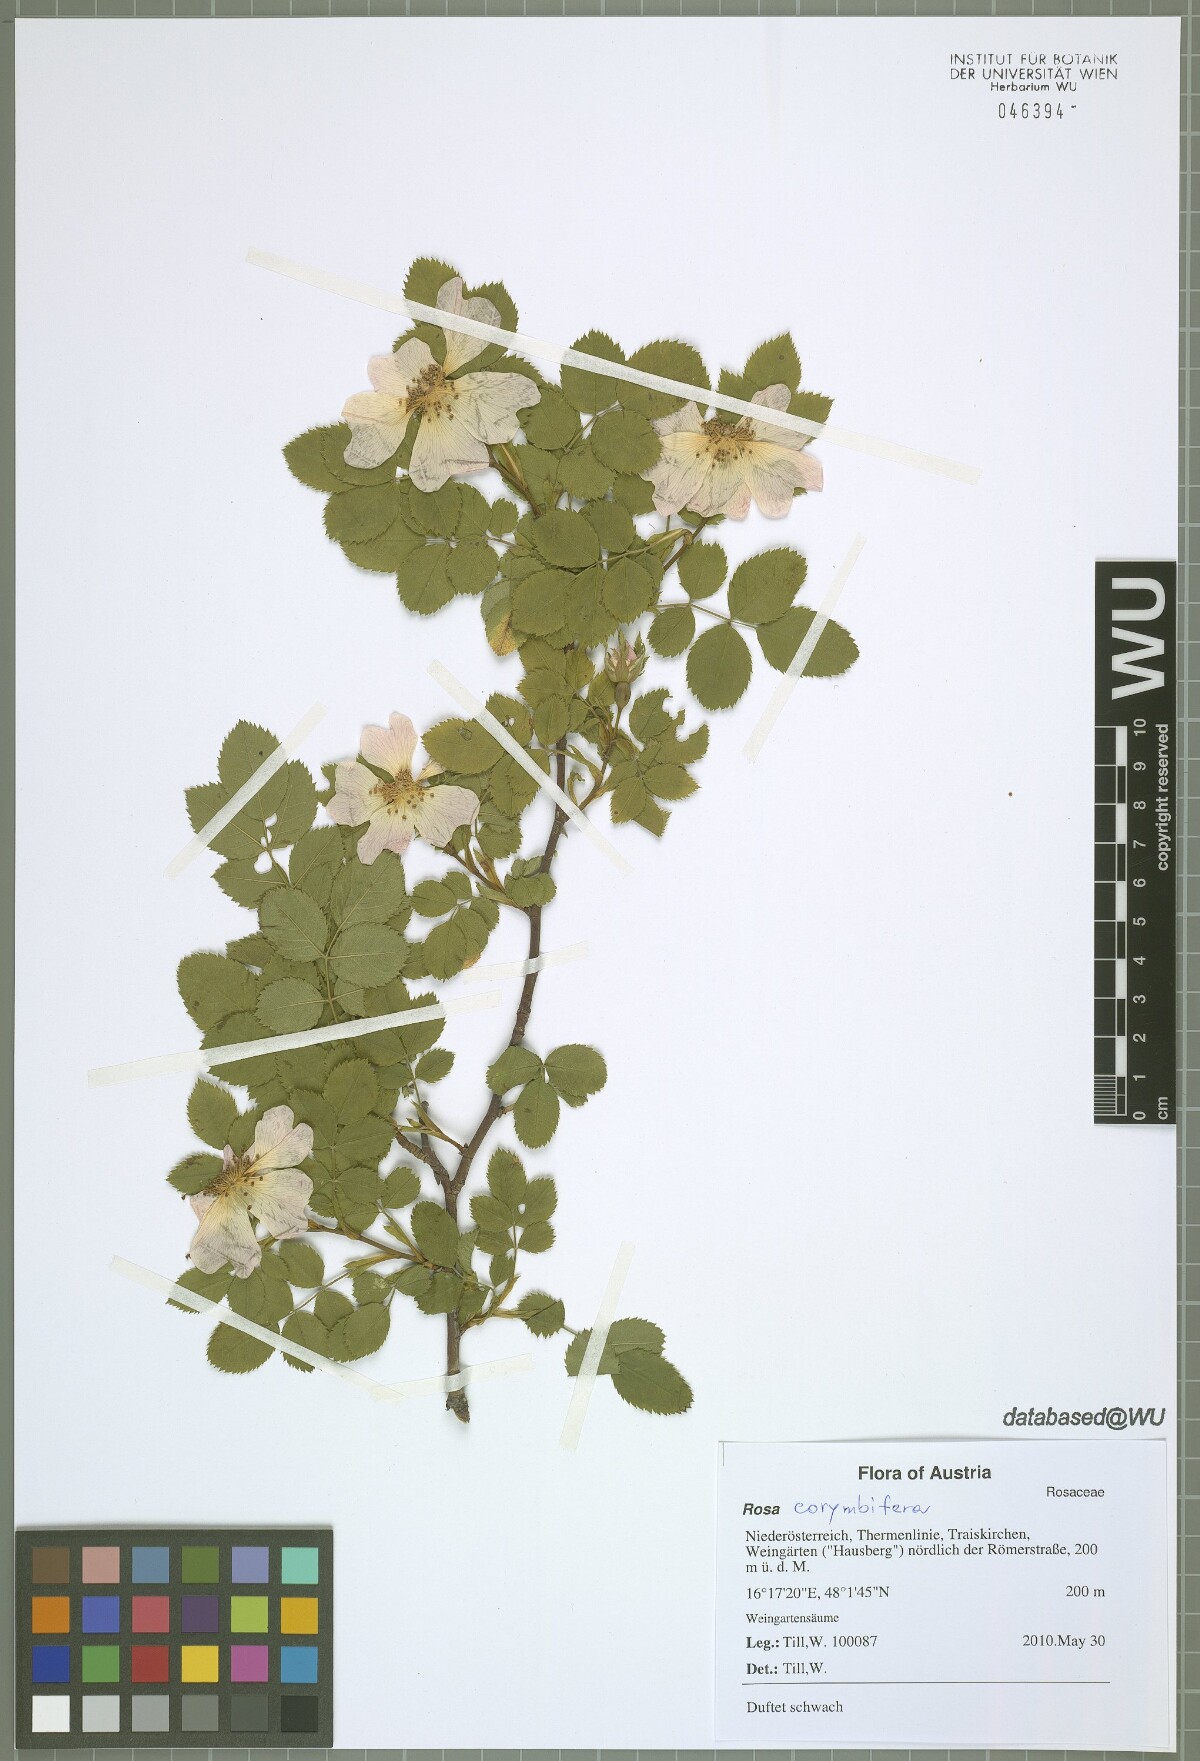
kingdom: Plantae
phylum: Tracheophyta
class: Magnoliopsida
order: Rosales
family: Rosaceae
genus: Rosa
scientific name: Rosa corymbifera
